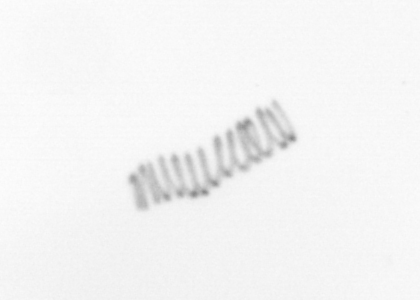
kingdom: Chromista
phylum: Ochrophyta
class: Bacillariophyceae
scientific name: Bacillariophyceae
